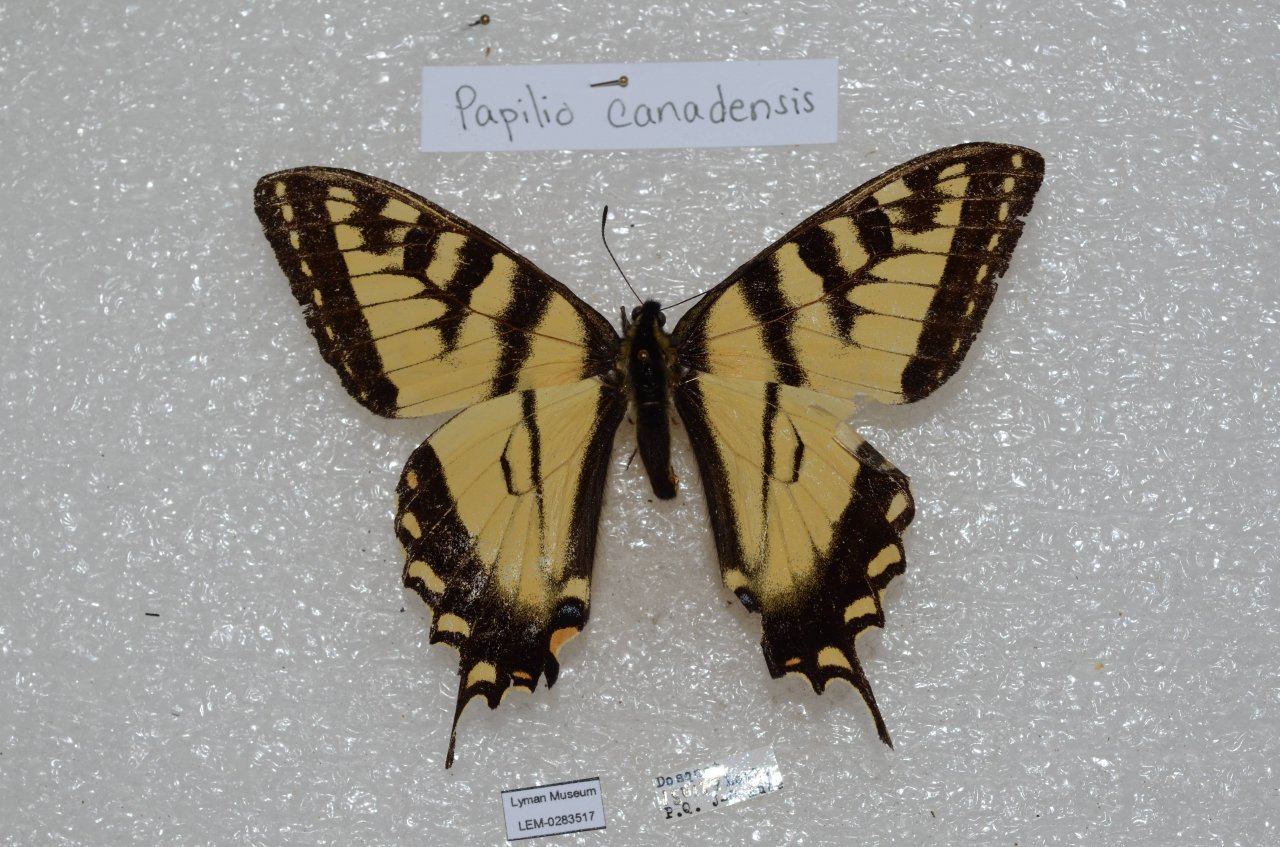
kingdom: Animalia
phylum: Arthropoda
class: Insecta
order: Lepidoptera
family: Papilionidae
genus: Pterourus
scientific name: Pterourus canadensis
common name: Canadian Tiger Swallowtail
